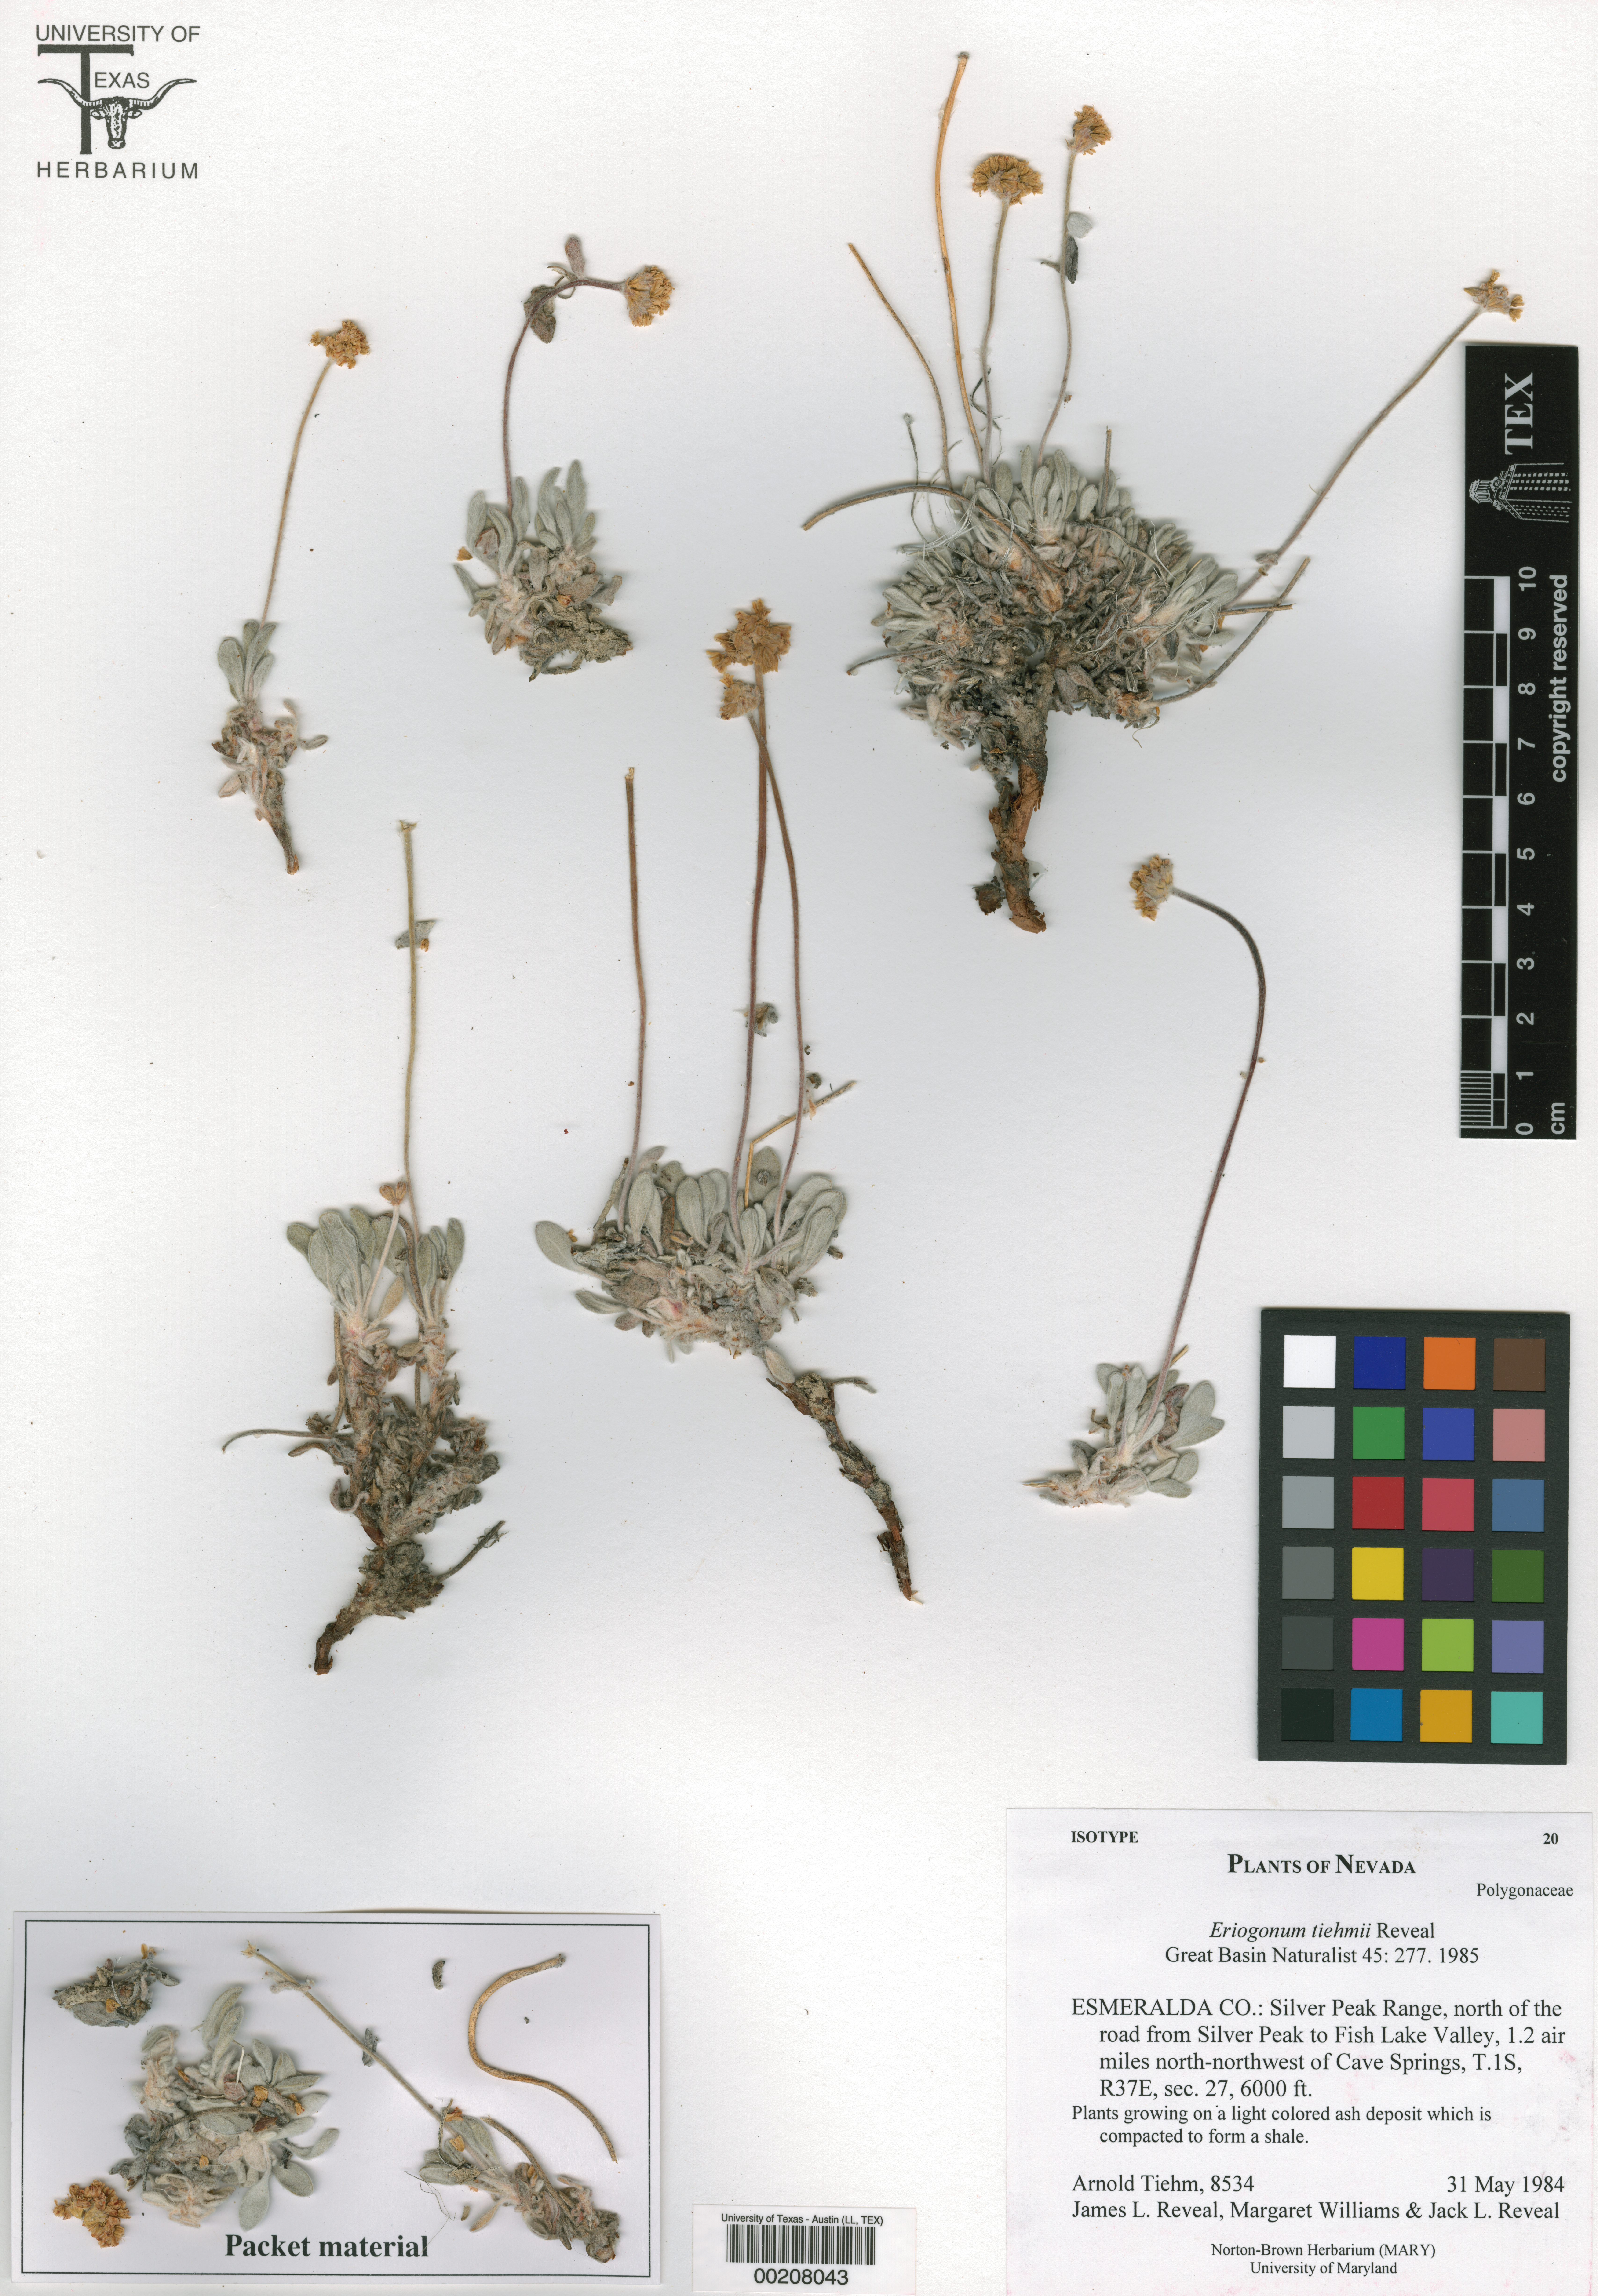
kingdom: Plantae
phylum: Tracheophyta
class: Magnoliopsida
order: Caryophyllales
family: Polygonaceae
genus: Eriogonum
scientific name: Eriogonum tiehmii
